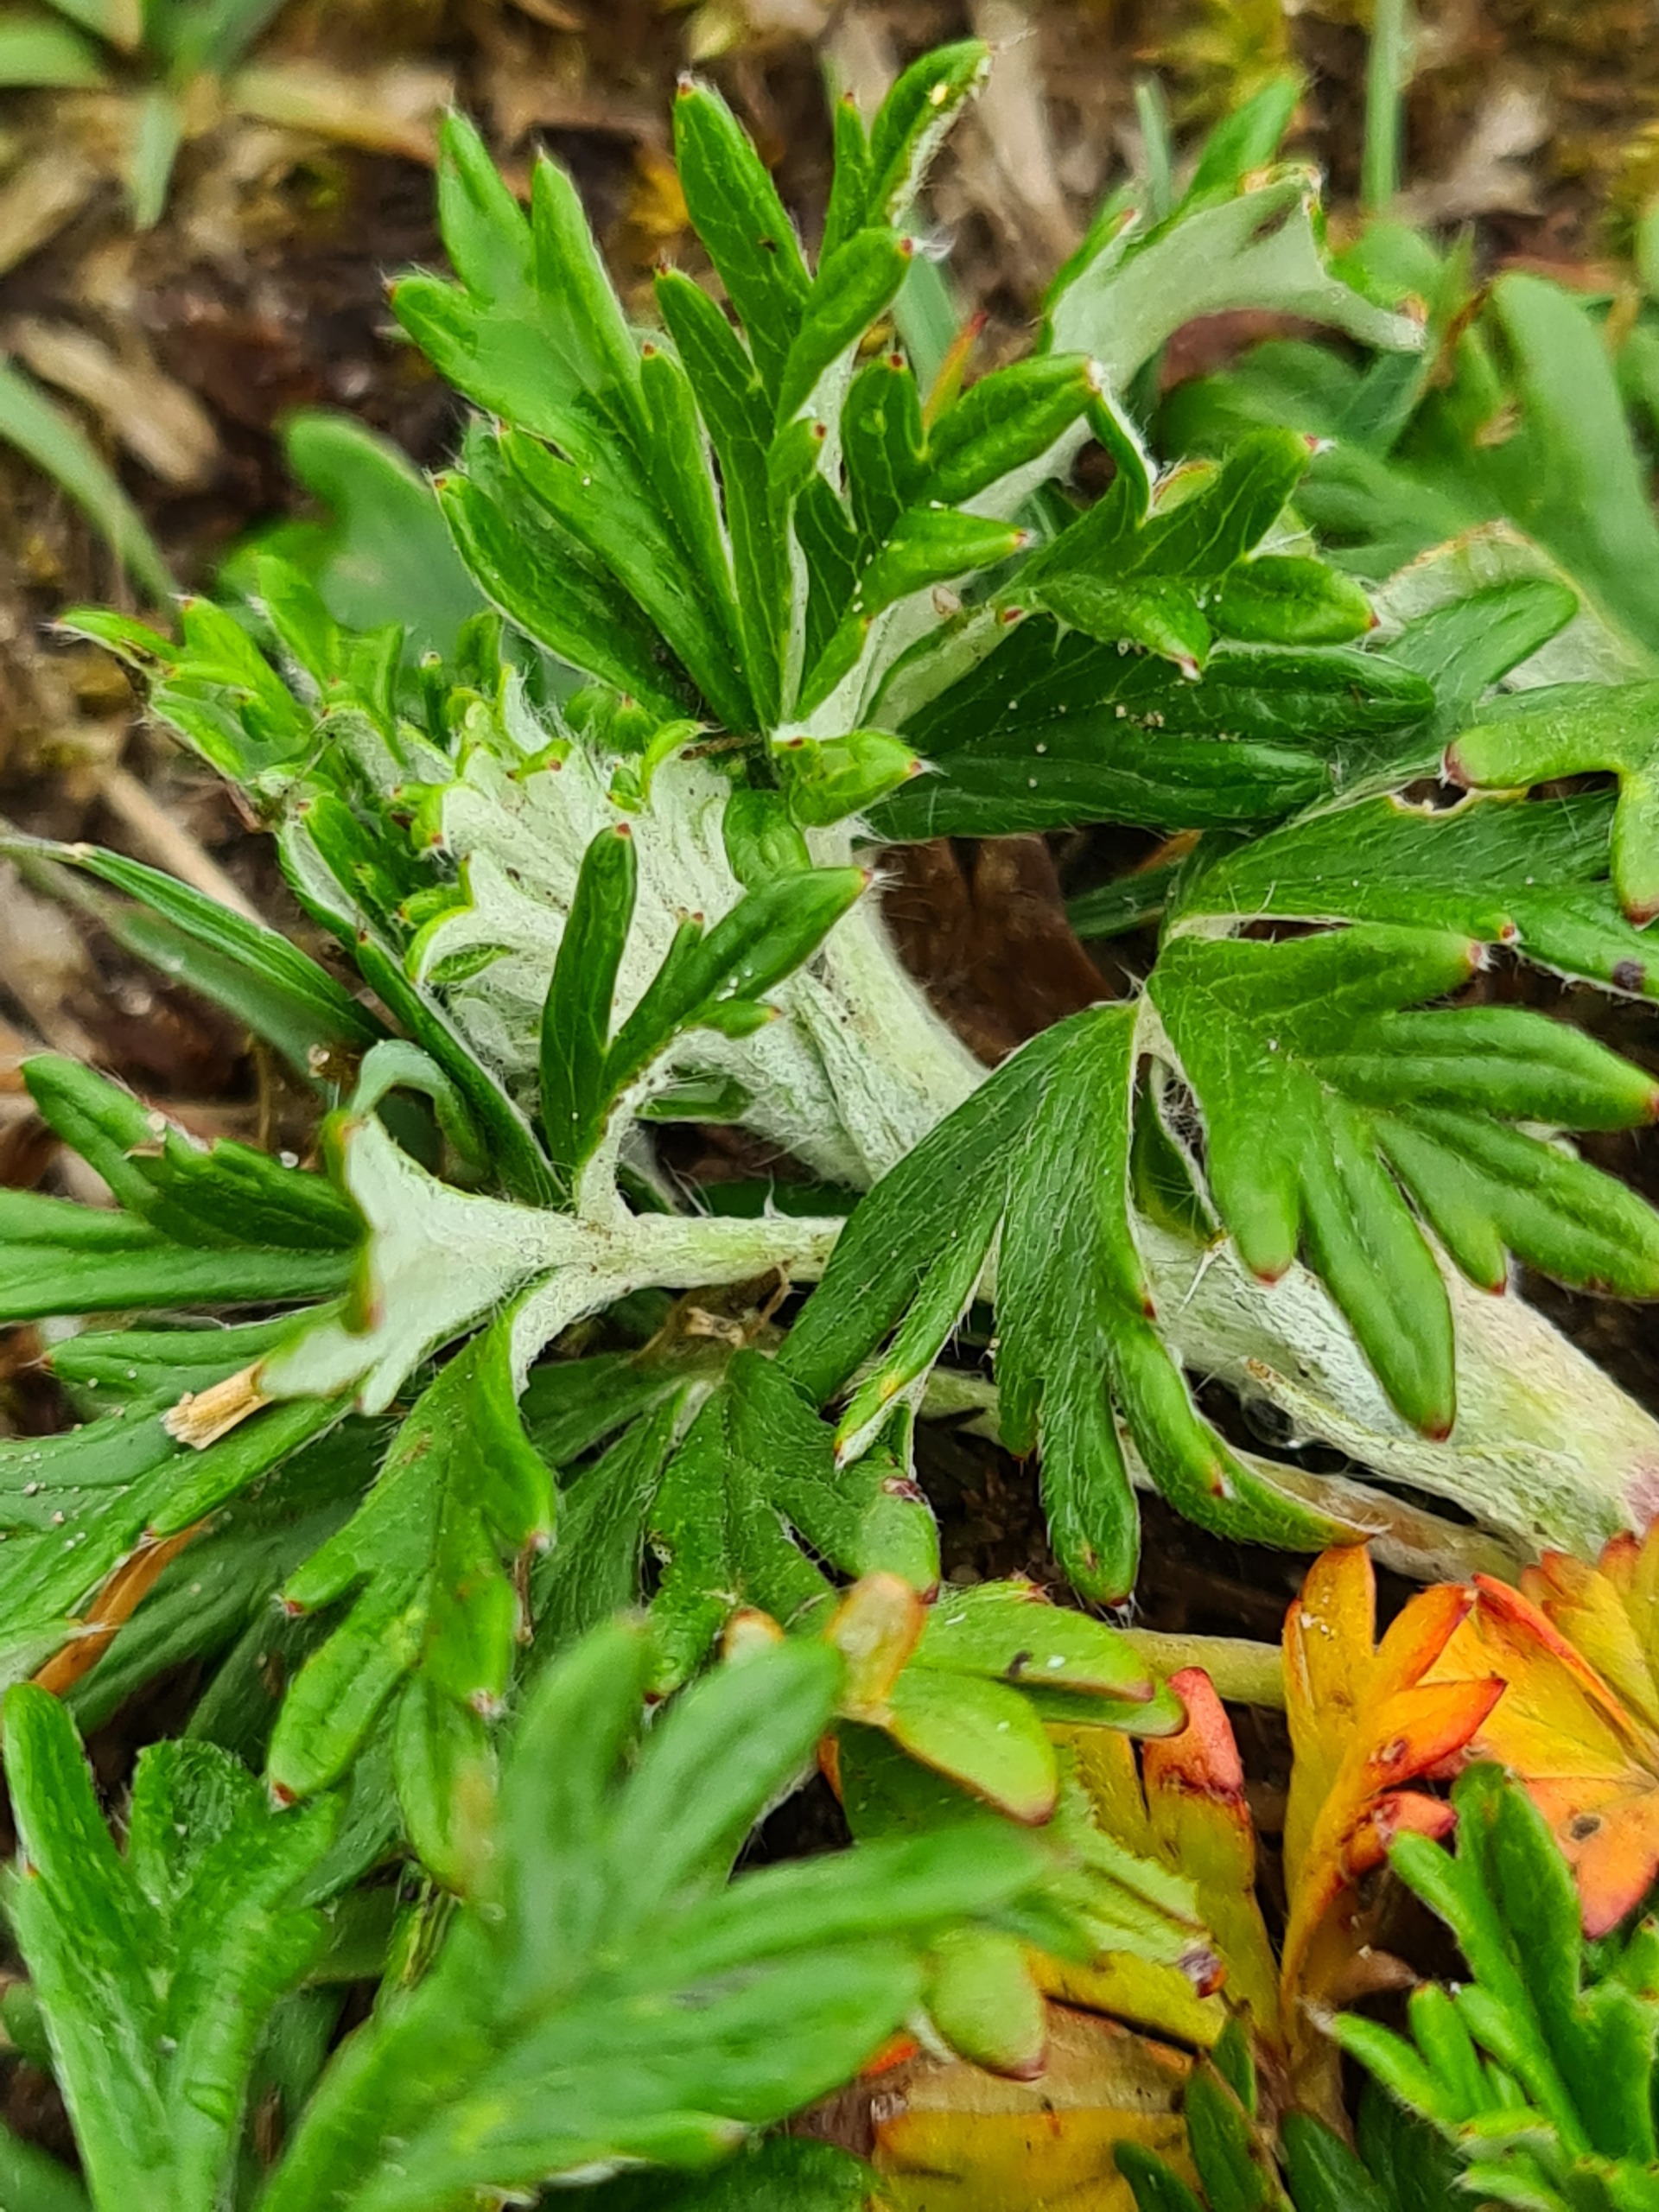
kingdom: Plantae
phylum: Tracheophyta
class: Magnoliopsida
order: Rosales
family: Rosaceae
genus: Potentilla
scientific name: Potentilla argentea
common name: Sølv-potentil
